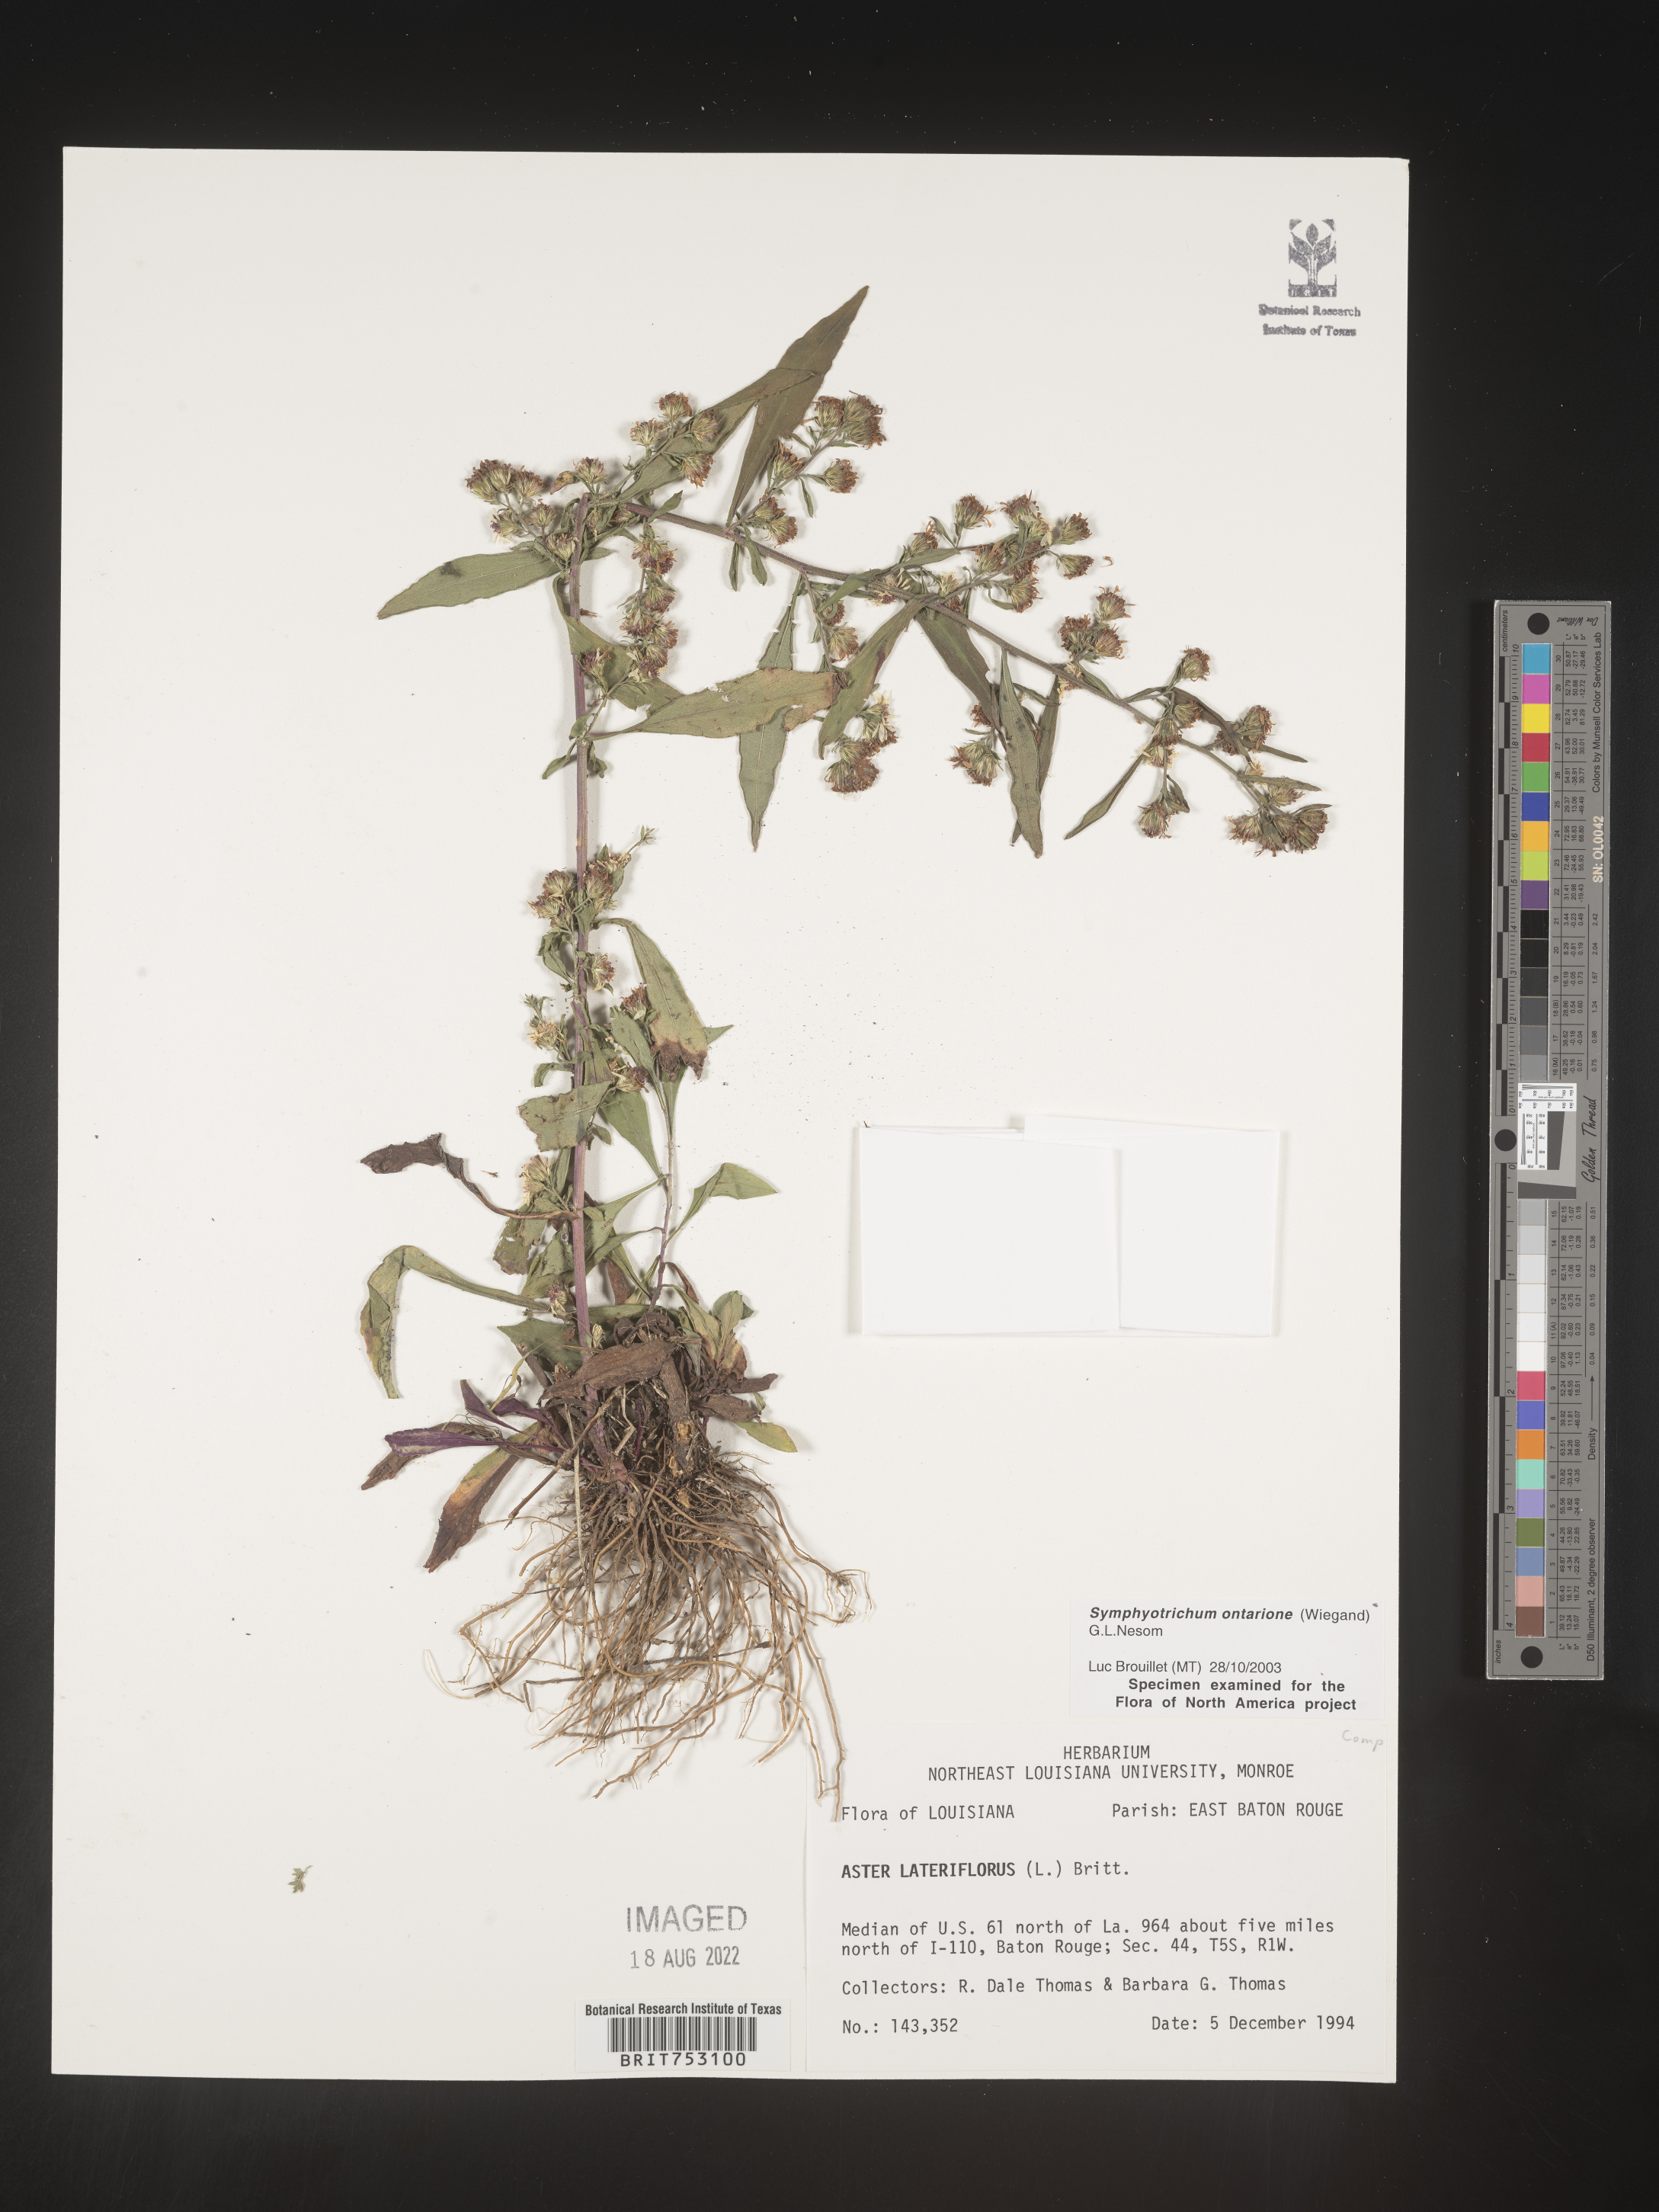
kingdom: Plantae
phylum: Tracheophyta
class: Magnoliopsida
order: Asterales
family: Asteraceae
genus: Symphyotrichum
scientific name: Symphyotrichum ontarionis
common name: Bottomland aster
